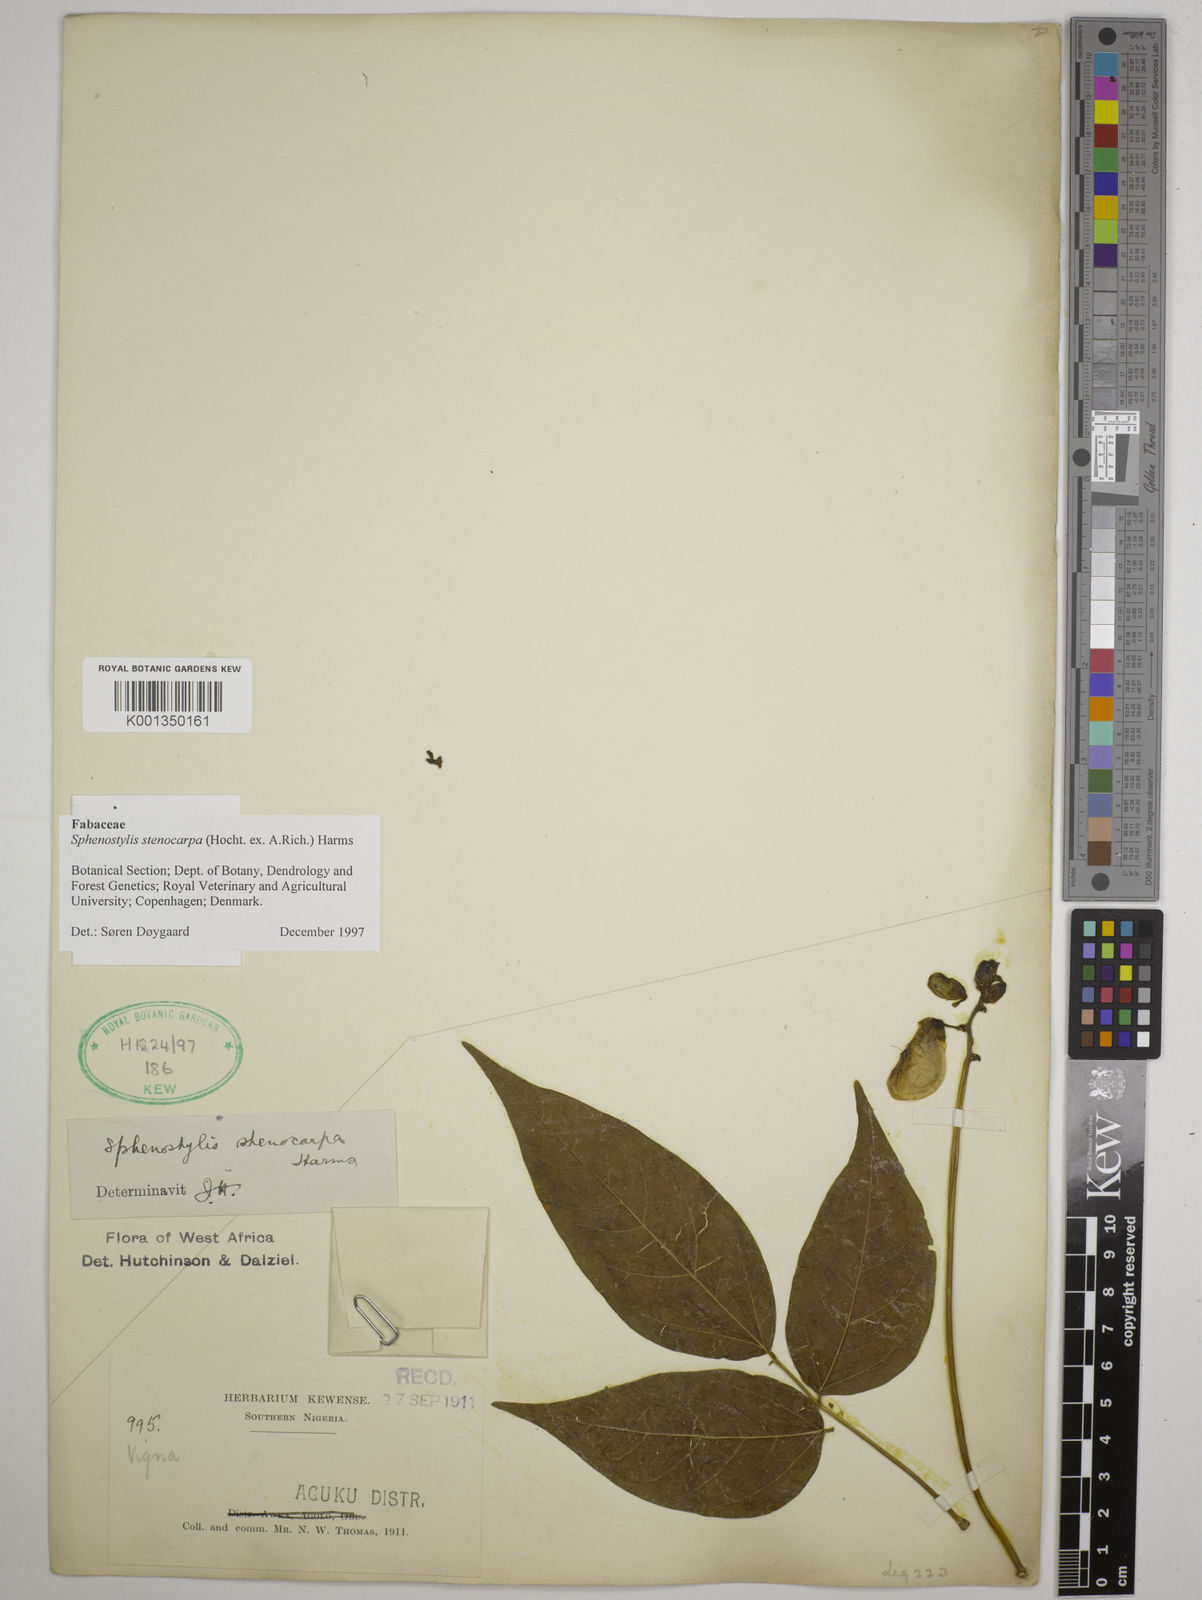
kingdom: Plantae
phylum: Tracheophyta
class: Magnoliopsida
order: Fabales
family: Fabaceae
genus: Sphenostylis
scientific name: Sphenostylis stenocarpa
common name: Yam-pea
